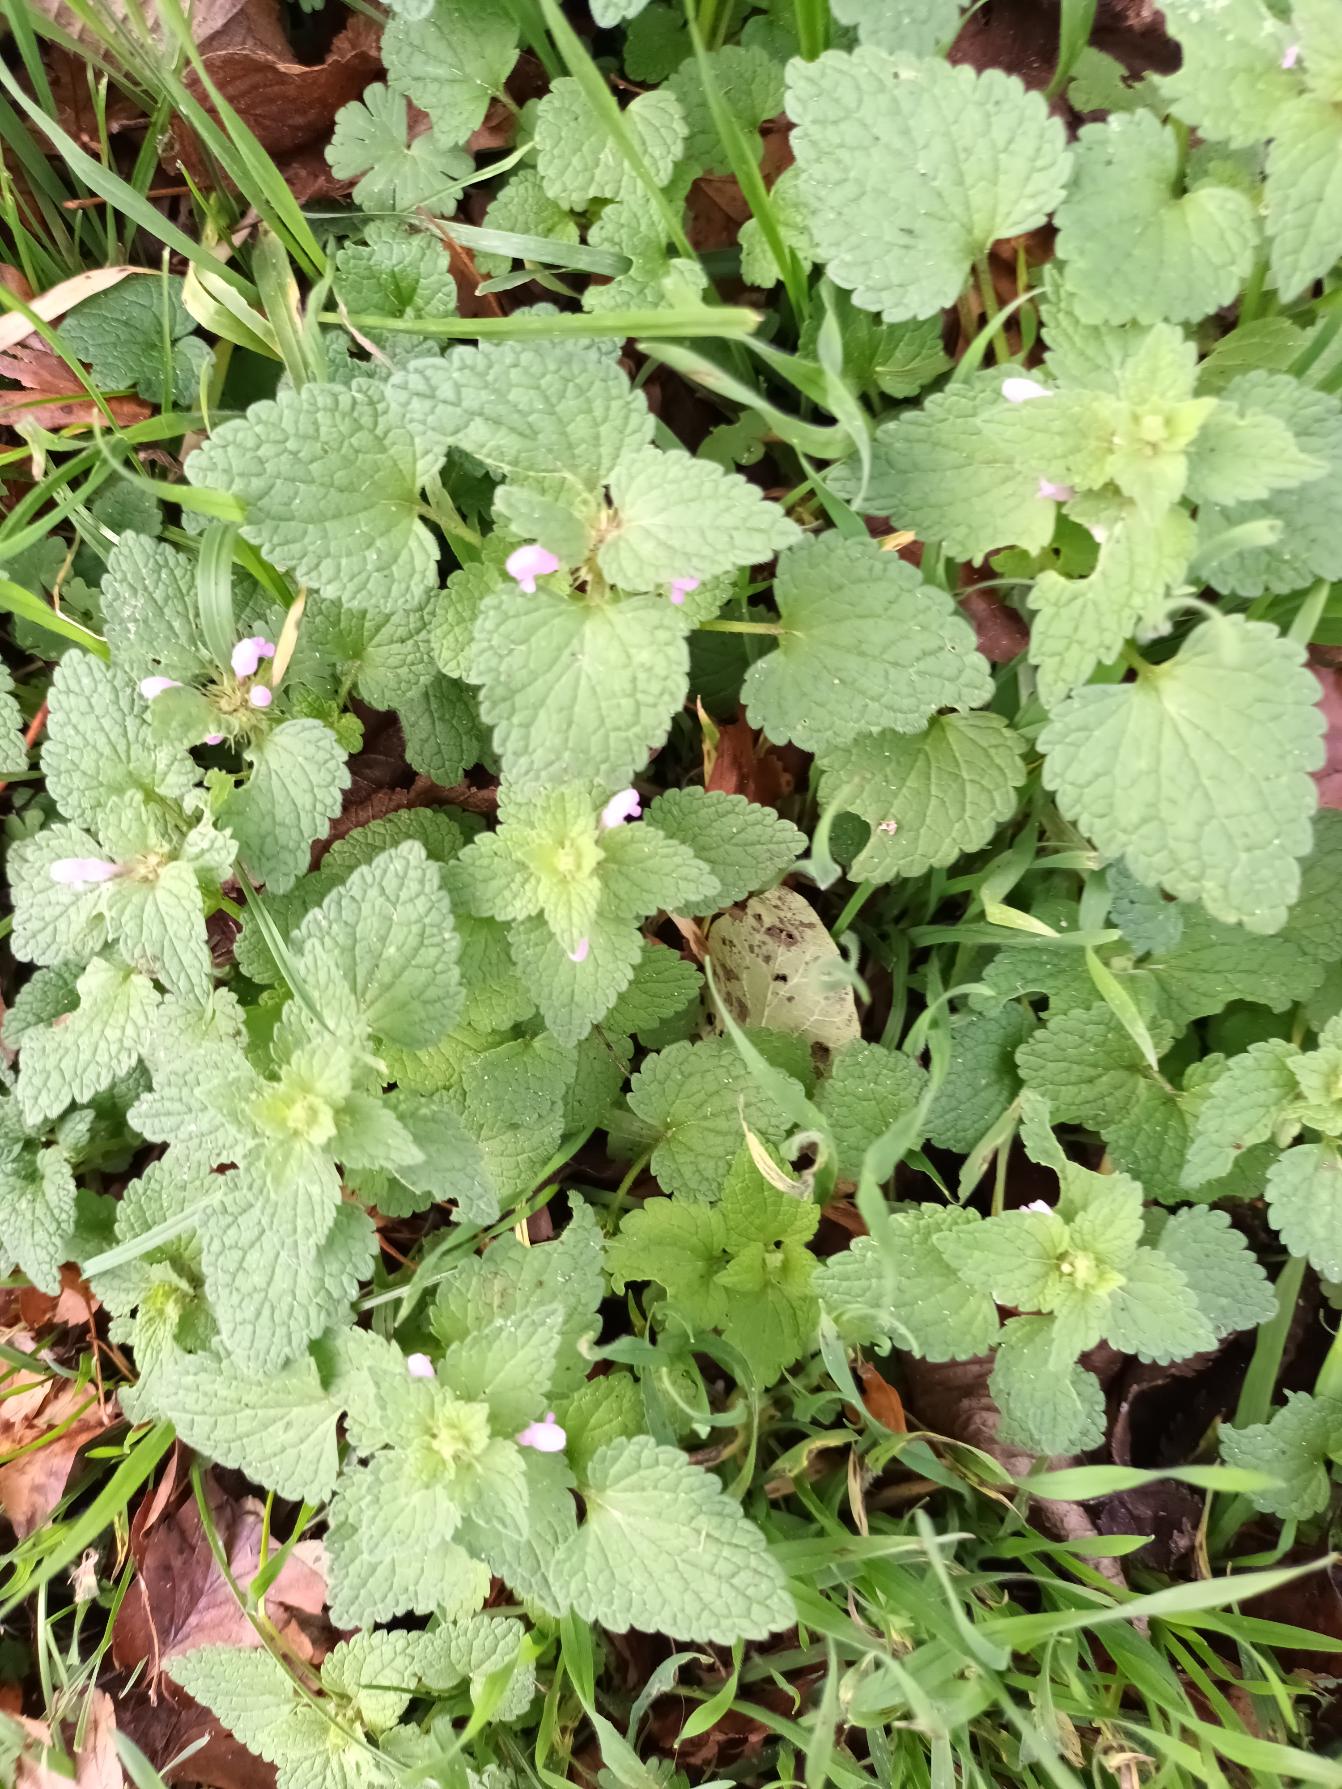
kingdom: Plantae
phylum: Tracheophyta
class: Magnoliopsida
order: Lamiales
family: Lamiaceae
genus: Lamium
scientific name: Lamium purpureum
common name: Rød tvetand
